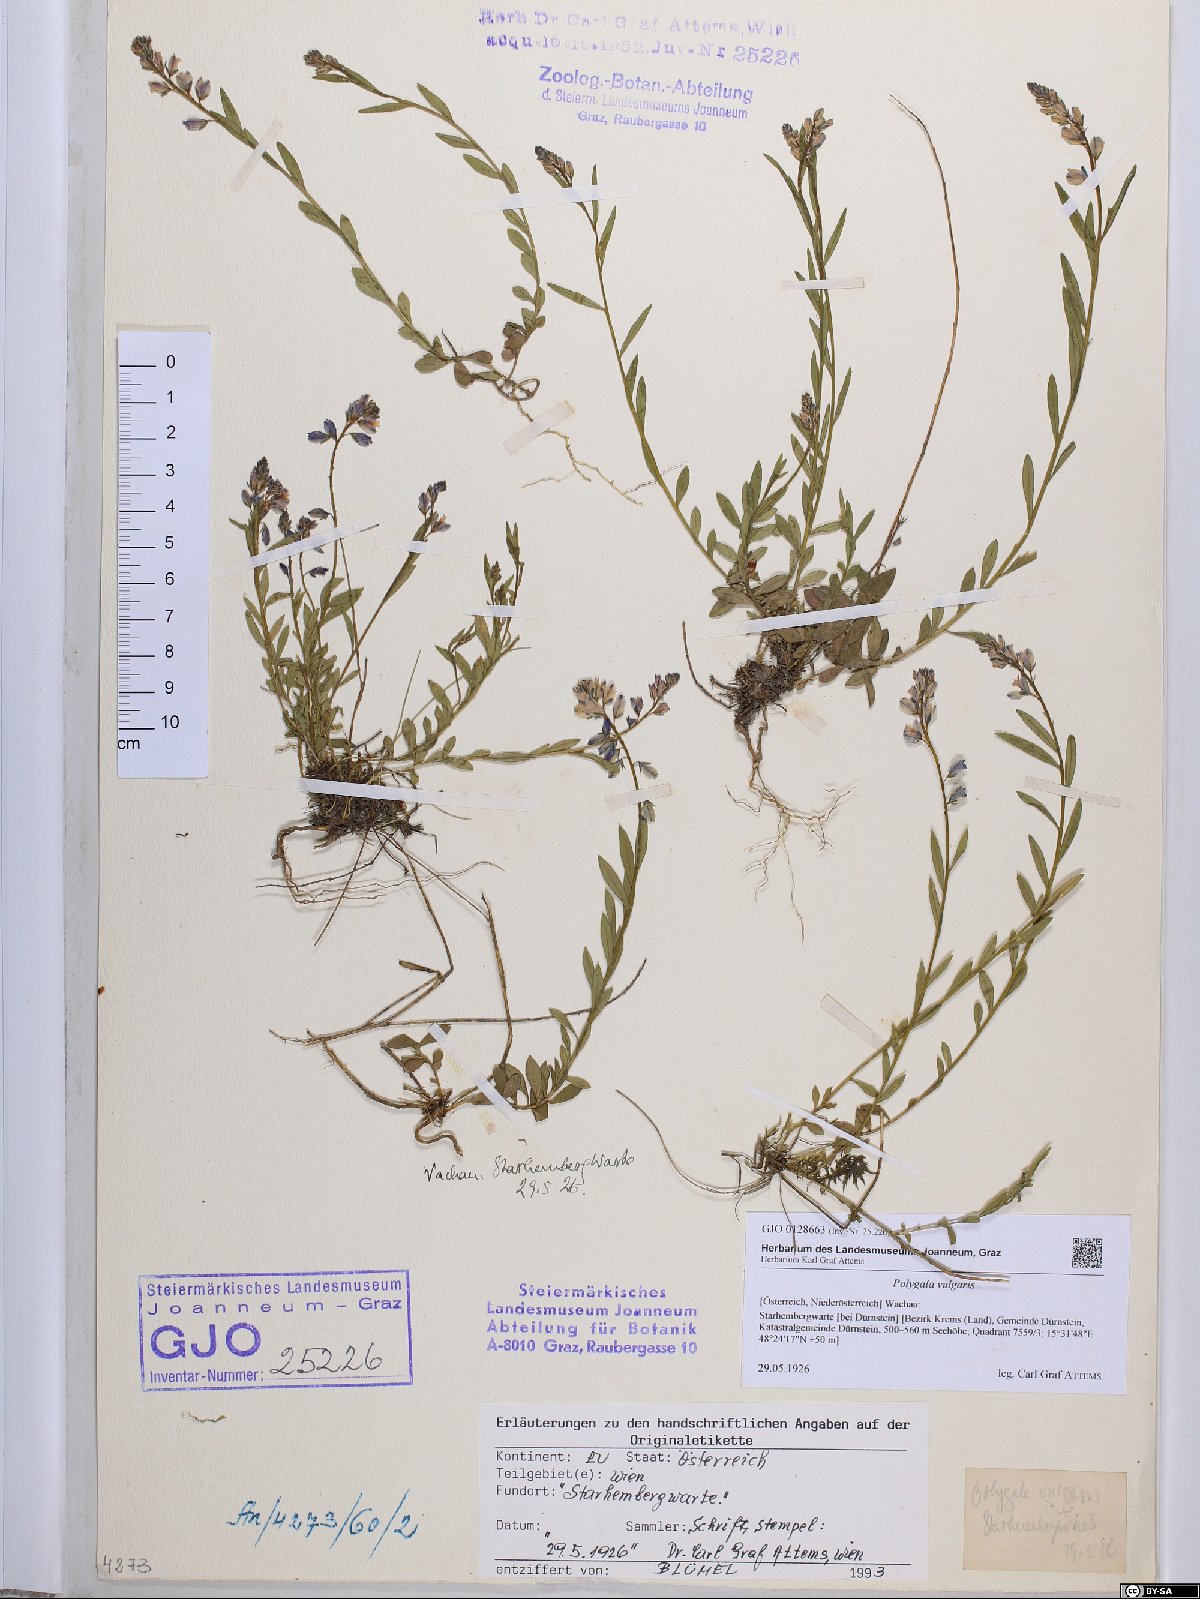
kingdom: Plantae
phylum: Tracheophyta
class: Magnoliopsida
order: Fabales
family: Polygalaceae
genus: Polygala
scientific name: Polygala vulgaris
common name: Common milkwort
